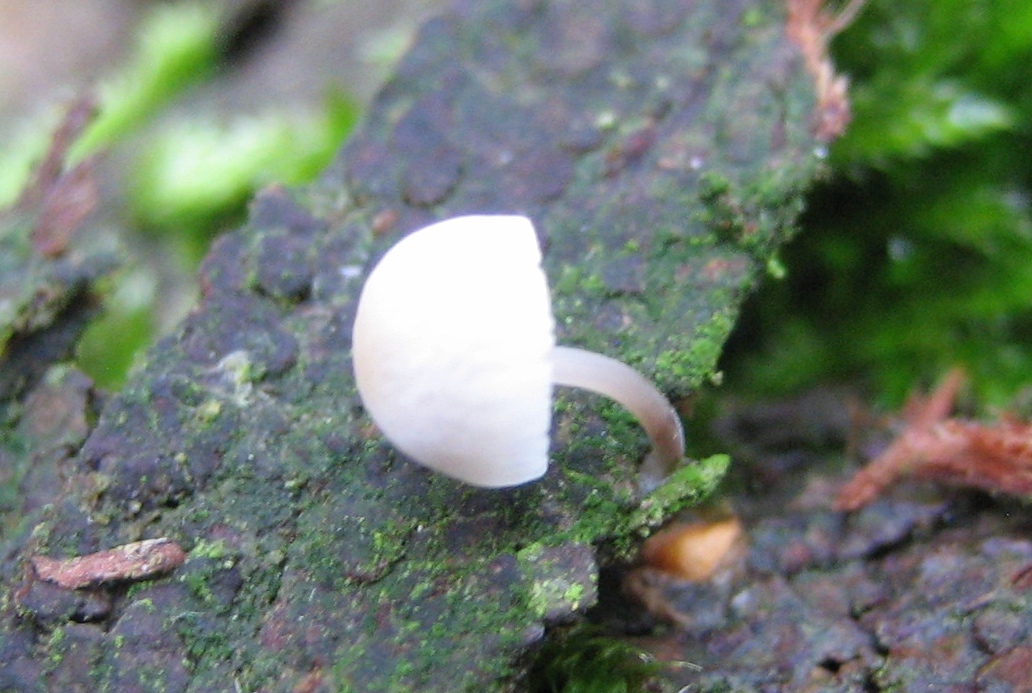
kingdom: Fungi
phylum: Basidiomycota
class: Agaricomycetes
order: Agaricales
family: Mycenaceae
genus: Mycena
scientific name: Mycena
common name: huesvamp
